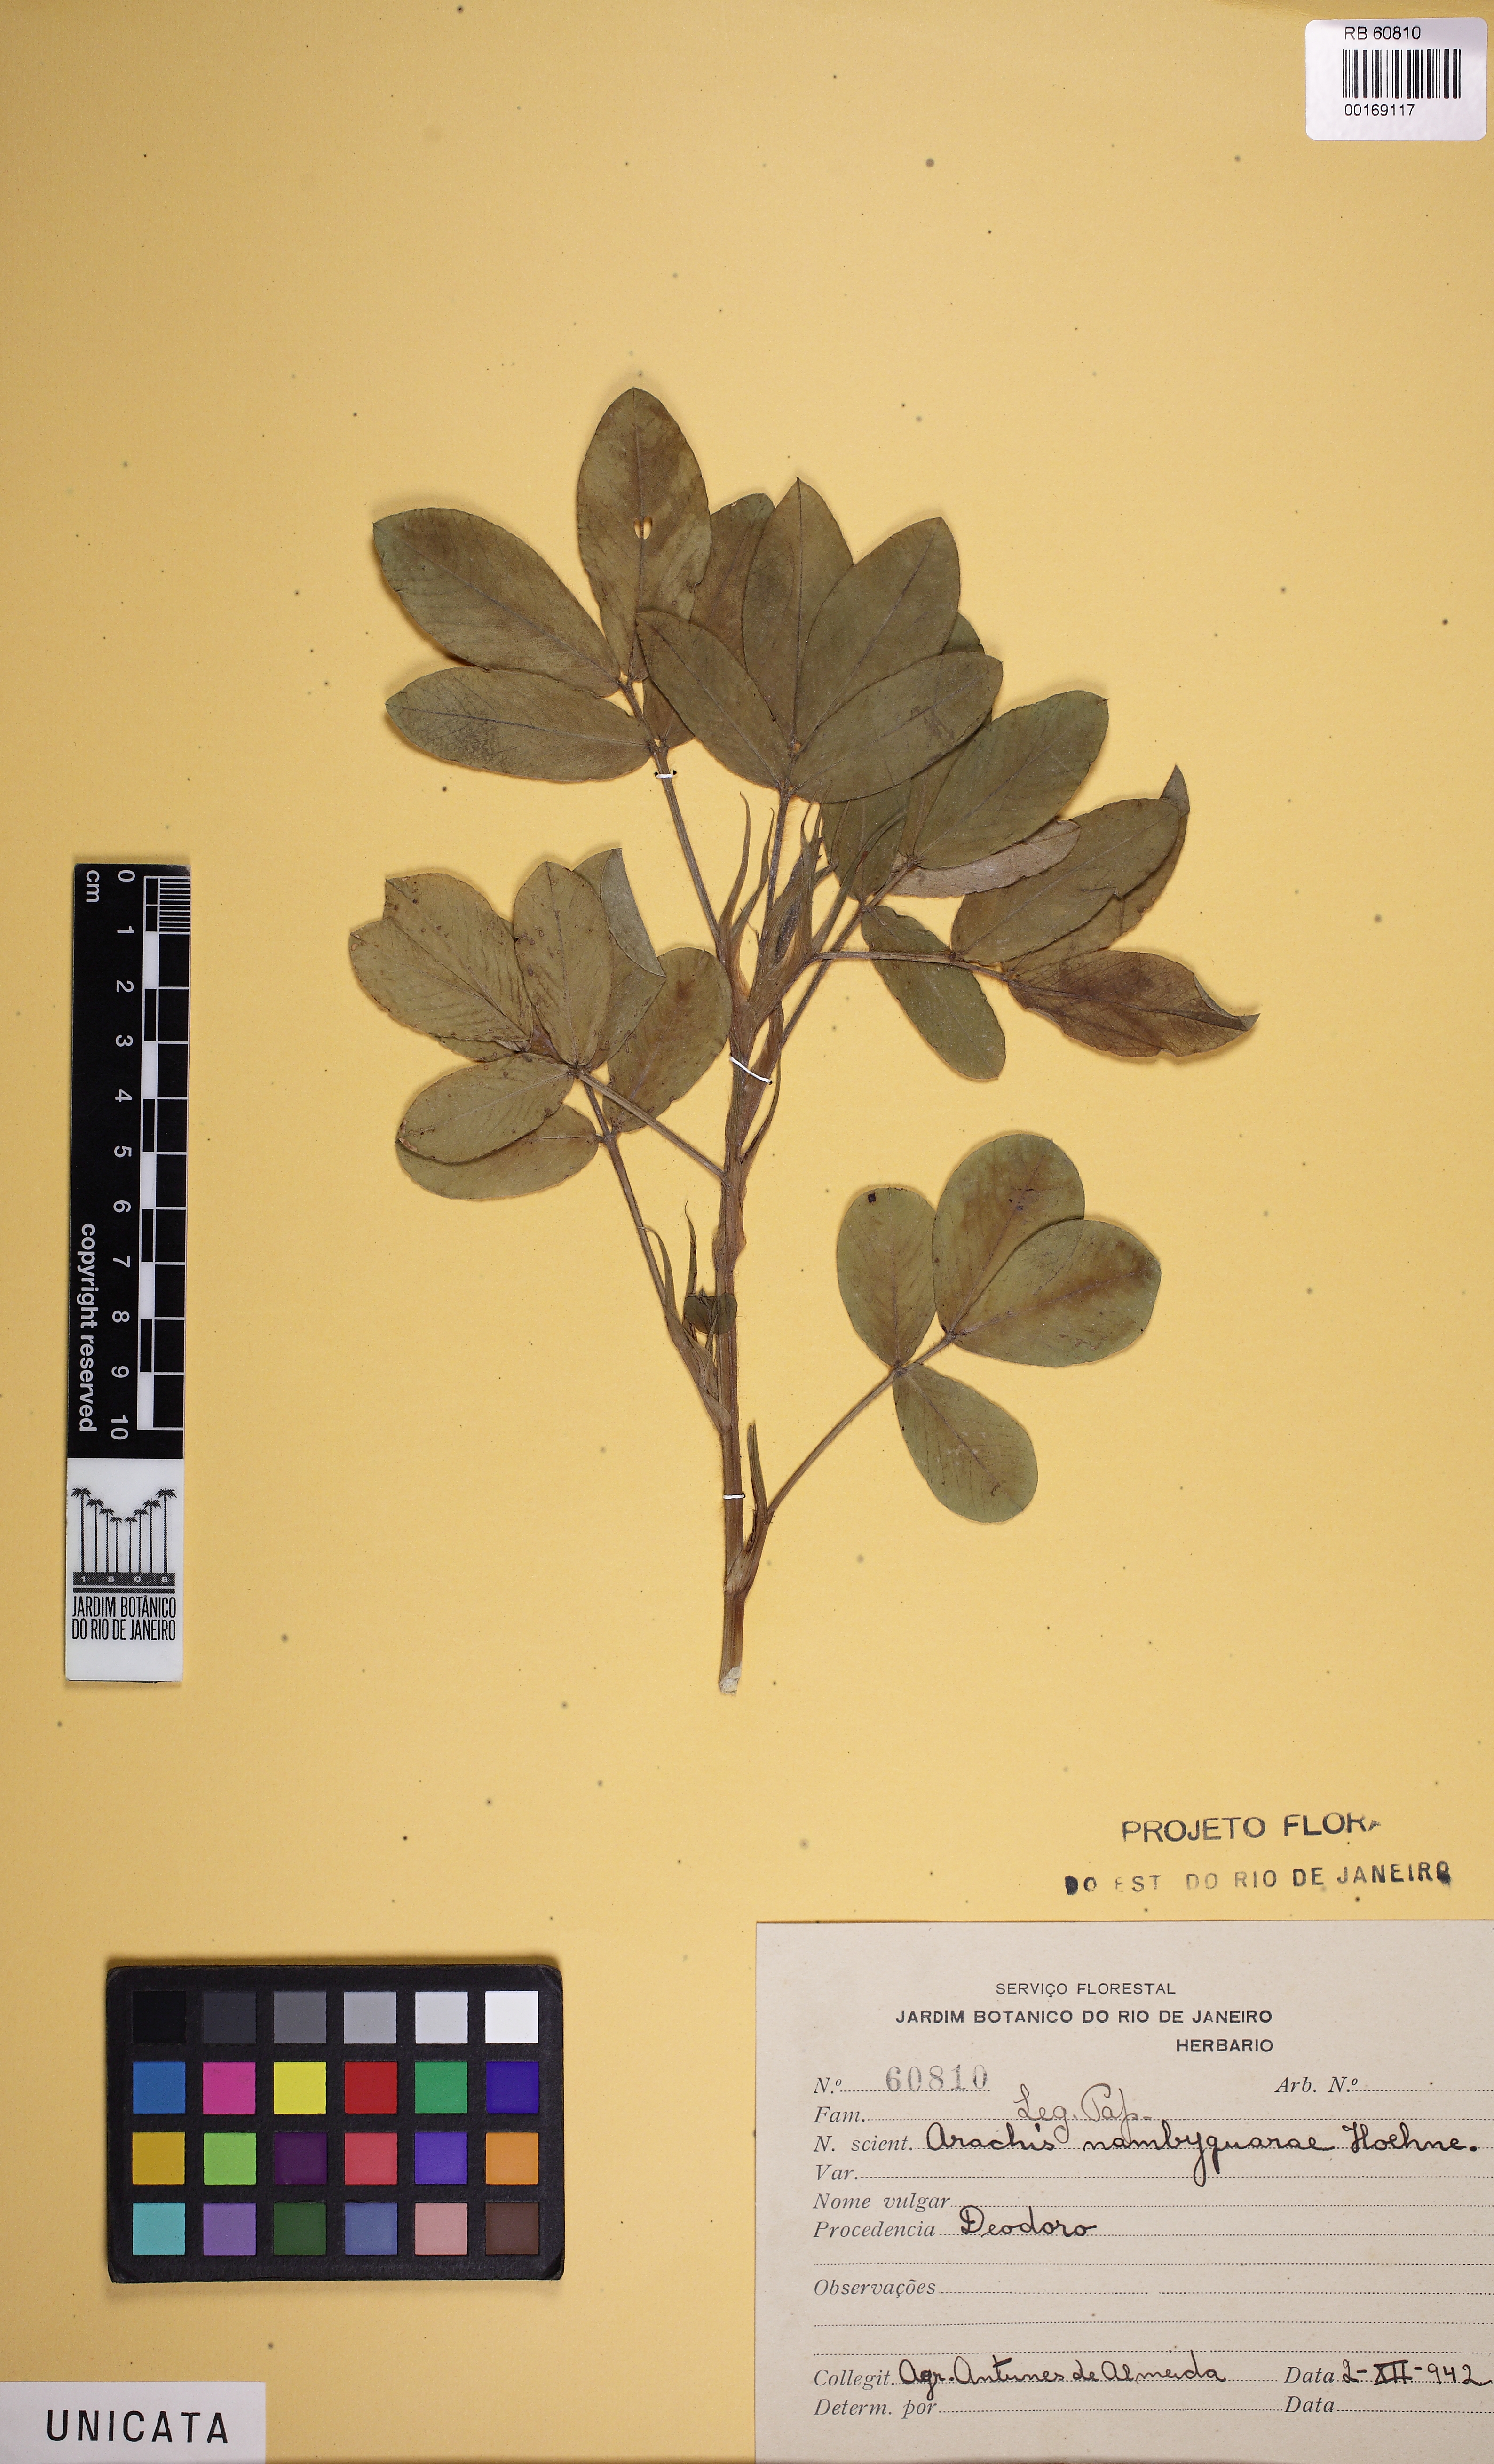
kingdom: Plantae
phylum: Tracheophyta
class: Magnoliopsida
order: Fabales
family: Fabaceae
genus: Arachis
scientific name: Arachis hypogaea
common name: Peanut
